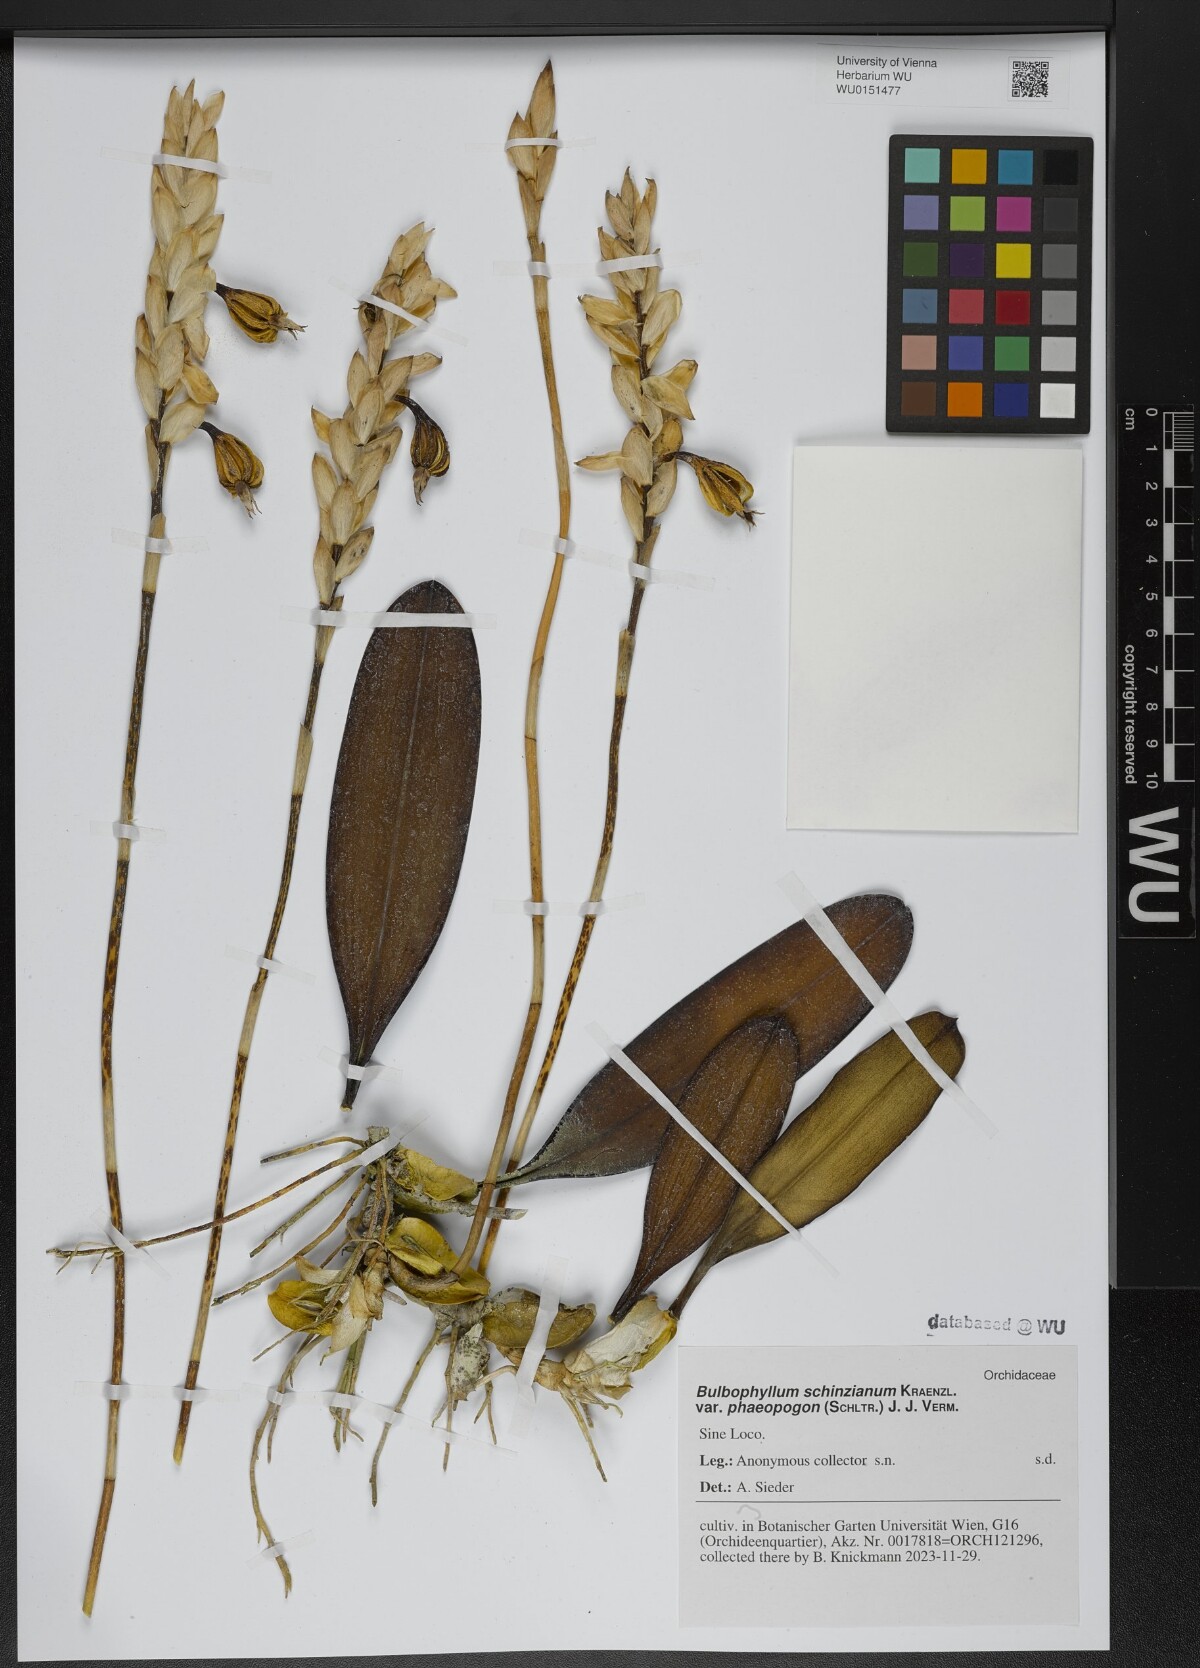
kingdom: Plantae
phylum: Tracheophyta
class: Liliopsida
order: Asparagales
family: Orchidaceae
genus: Bulbophyllum
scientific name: Bulbophyllum schinzianum
